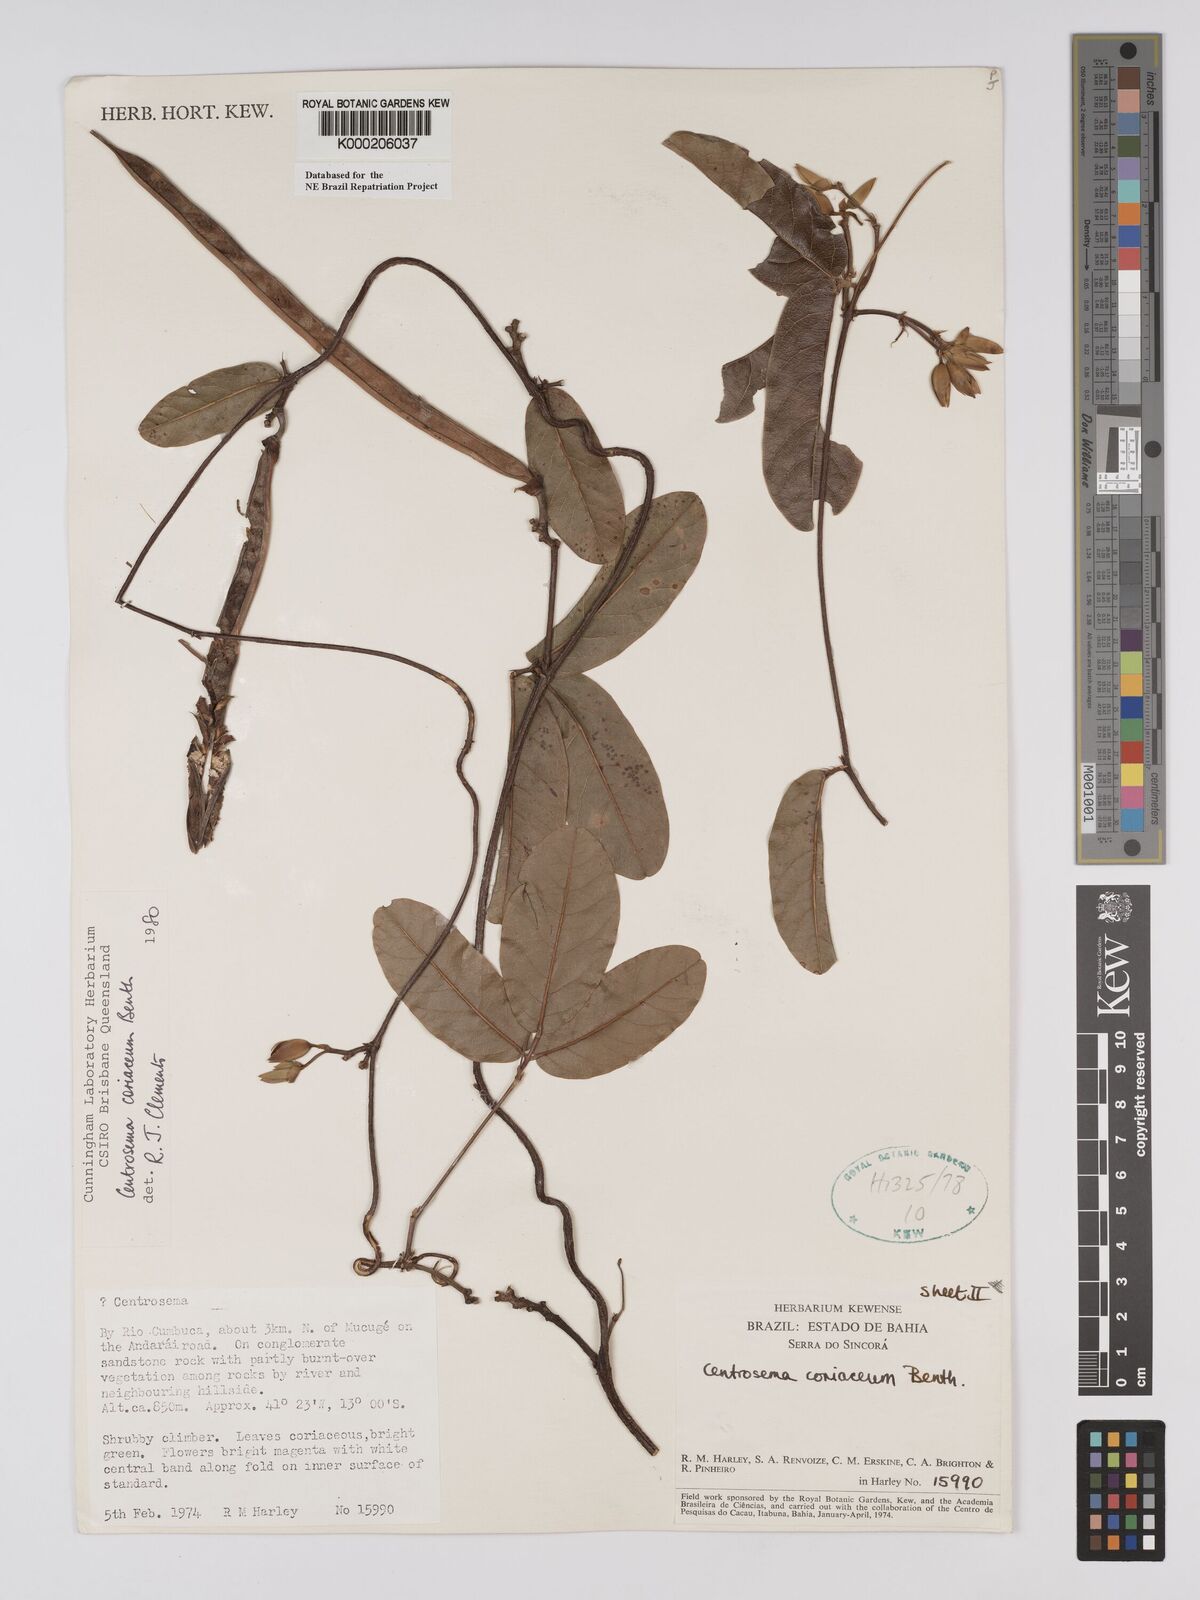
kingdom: Plantae
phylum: Tracheophyta
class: Magnoliopsida
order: Fabales
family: Fabaceae
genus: Centrosema
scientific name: Centrosema coriaceum
